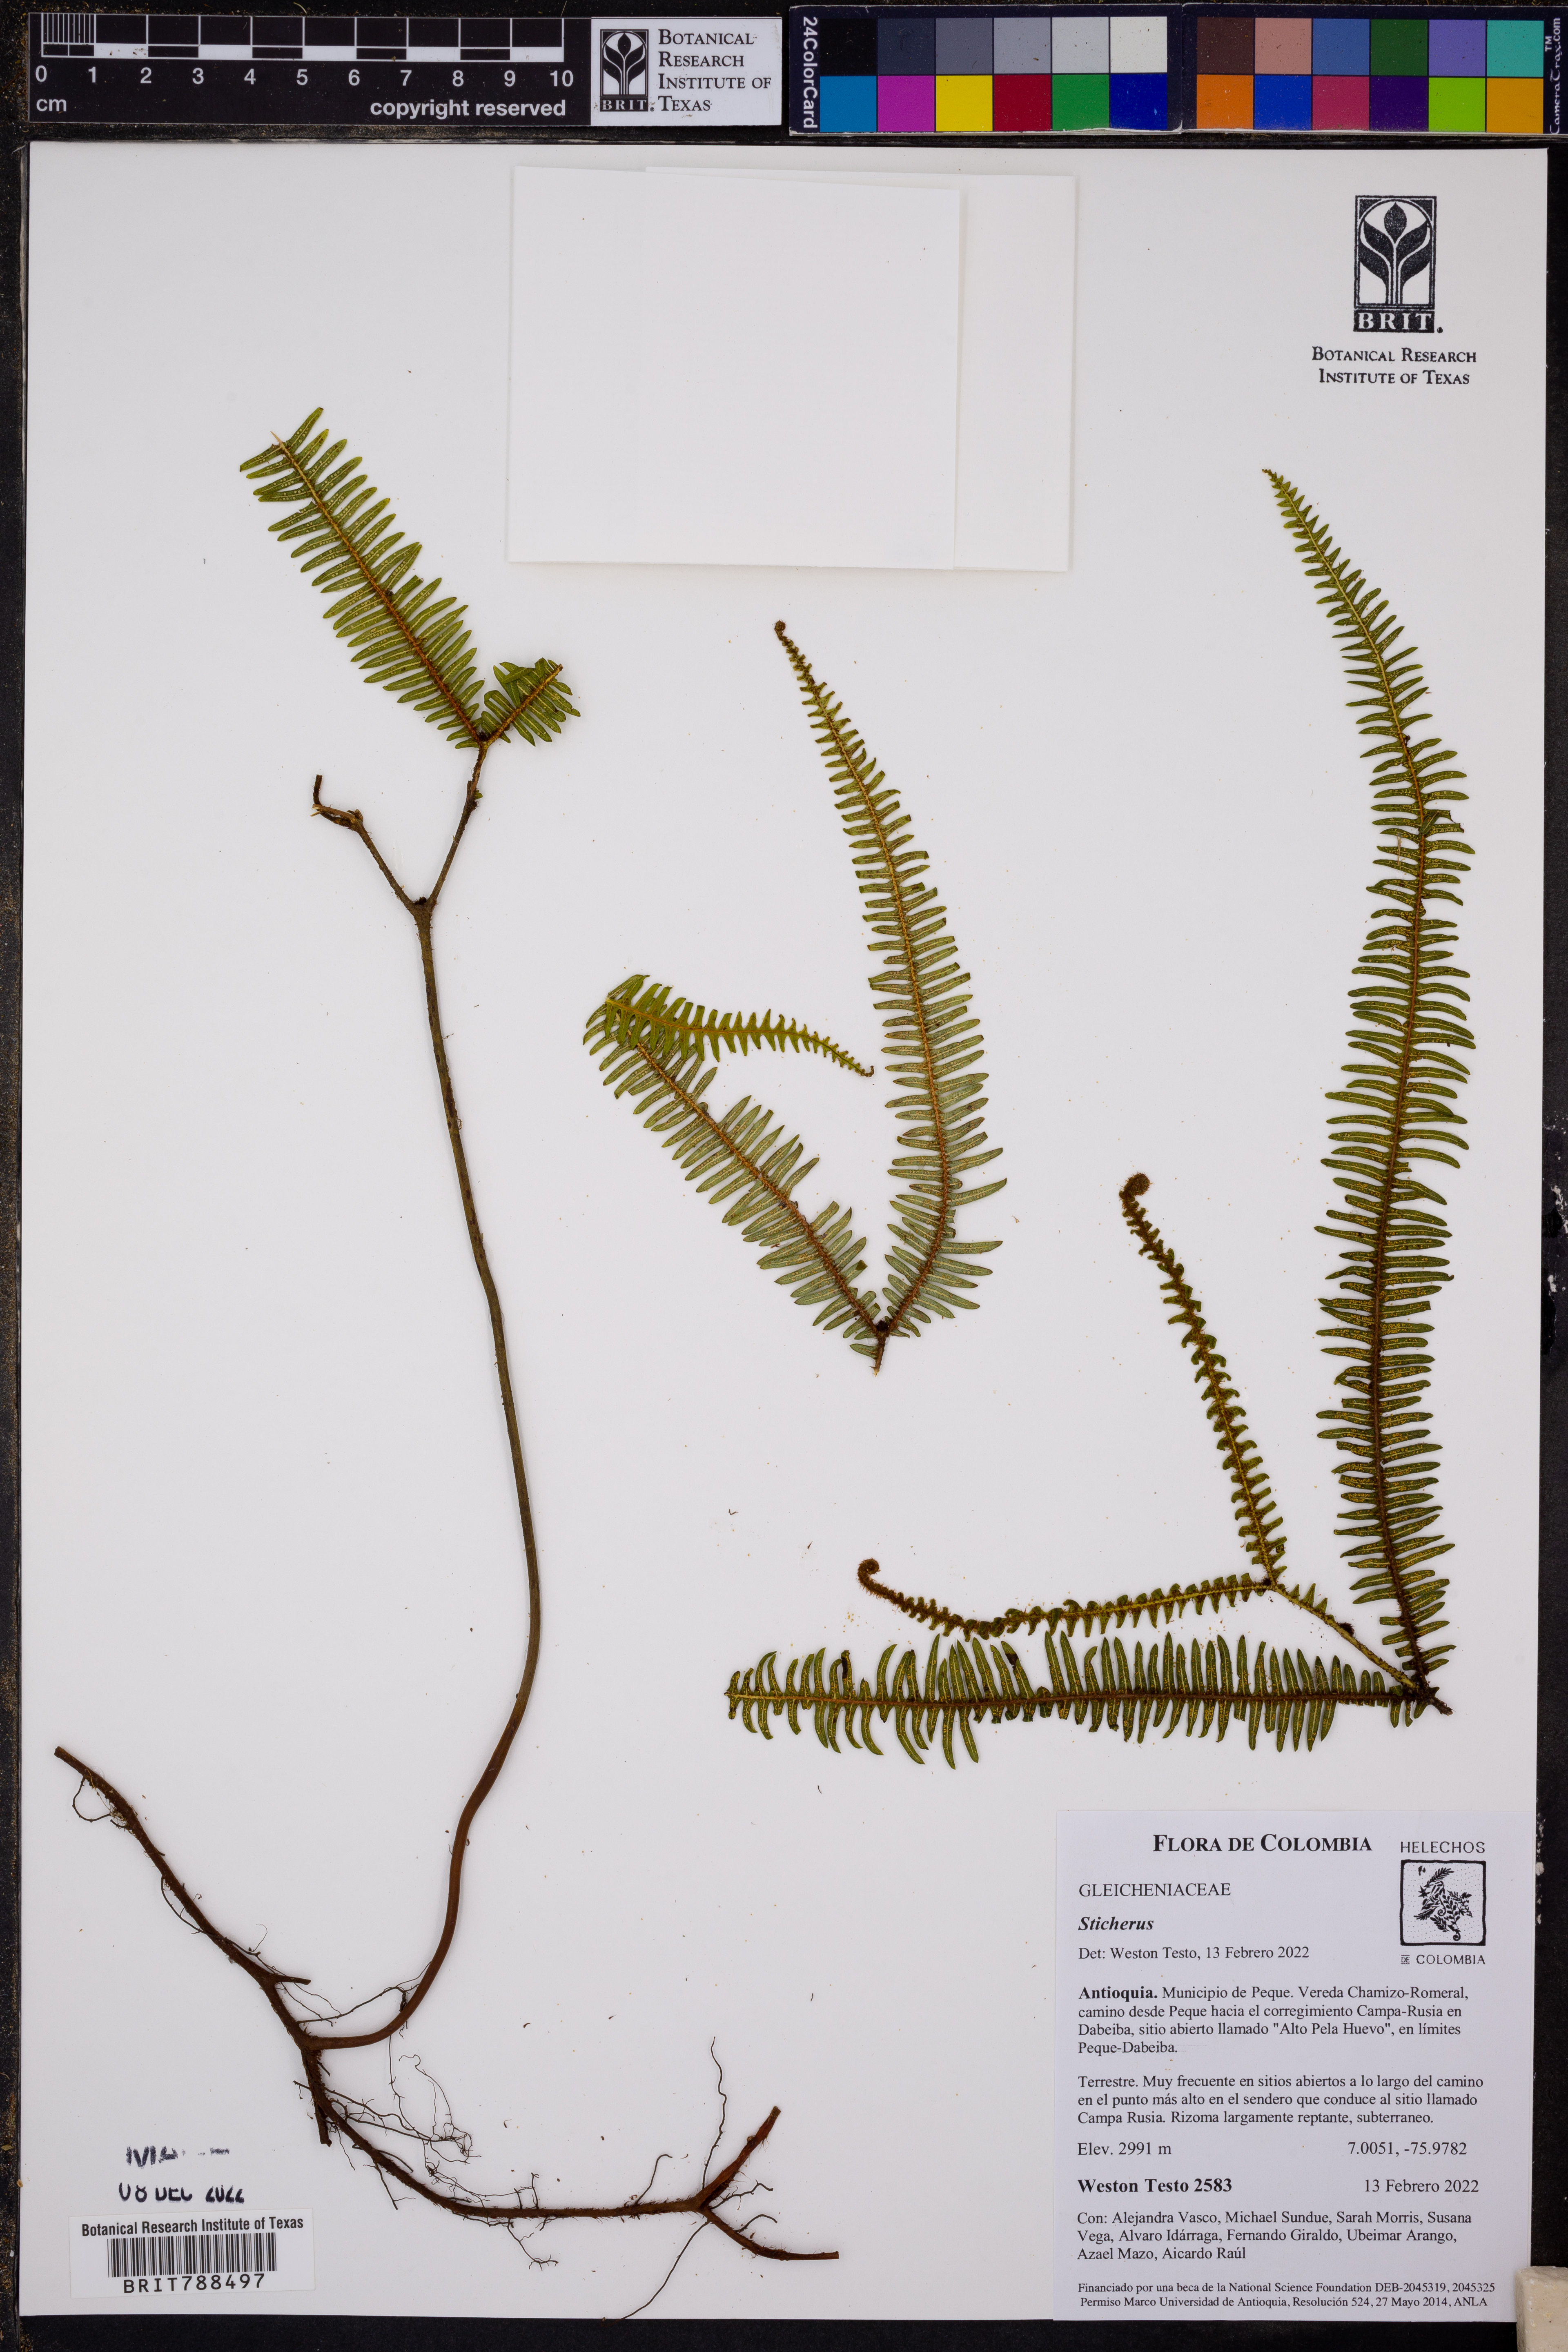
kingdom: Plantae
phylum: Tracheophyta
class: Polypodiopsida
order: Gleicheniales
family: Gleicheniaceae
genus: Sticherus
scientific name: Sticherus
